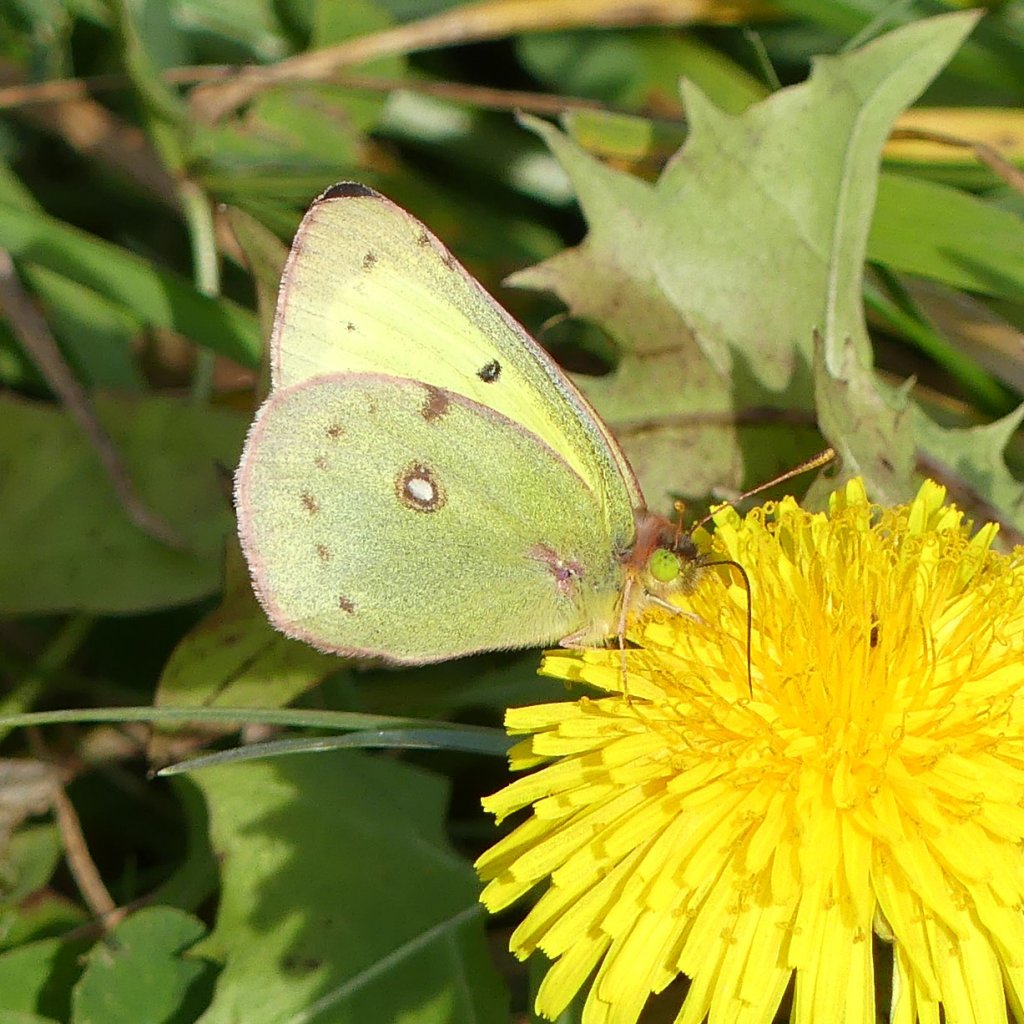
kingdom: Animalia
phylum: Arthropoda
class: Insecta
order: Lepidoptera
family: Pieridae
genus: Colias
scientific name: Colias philodice
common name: Clouded Sulphur
